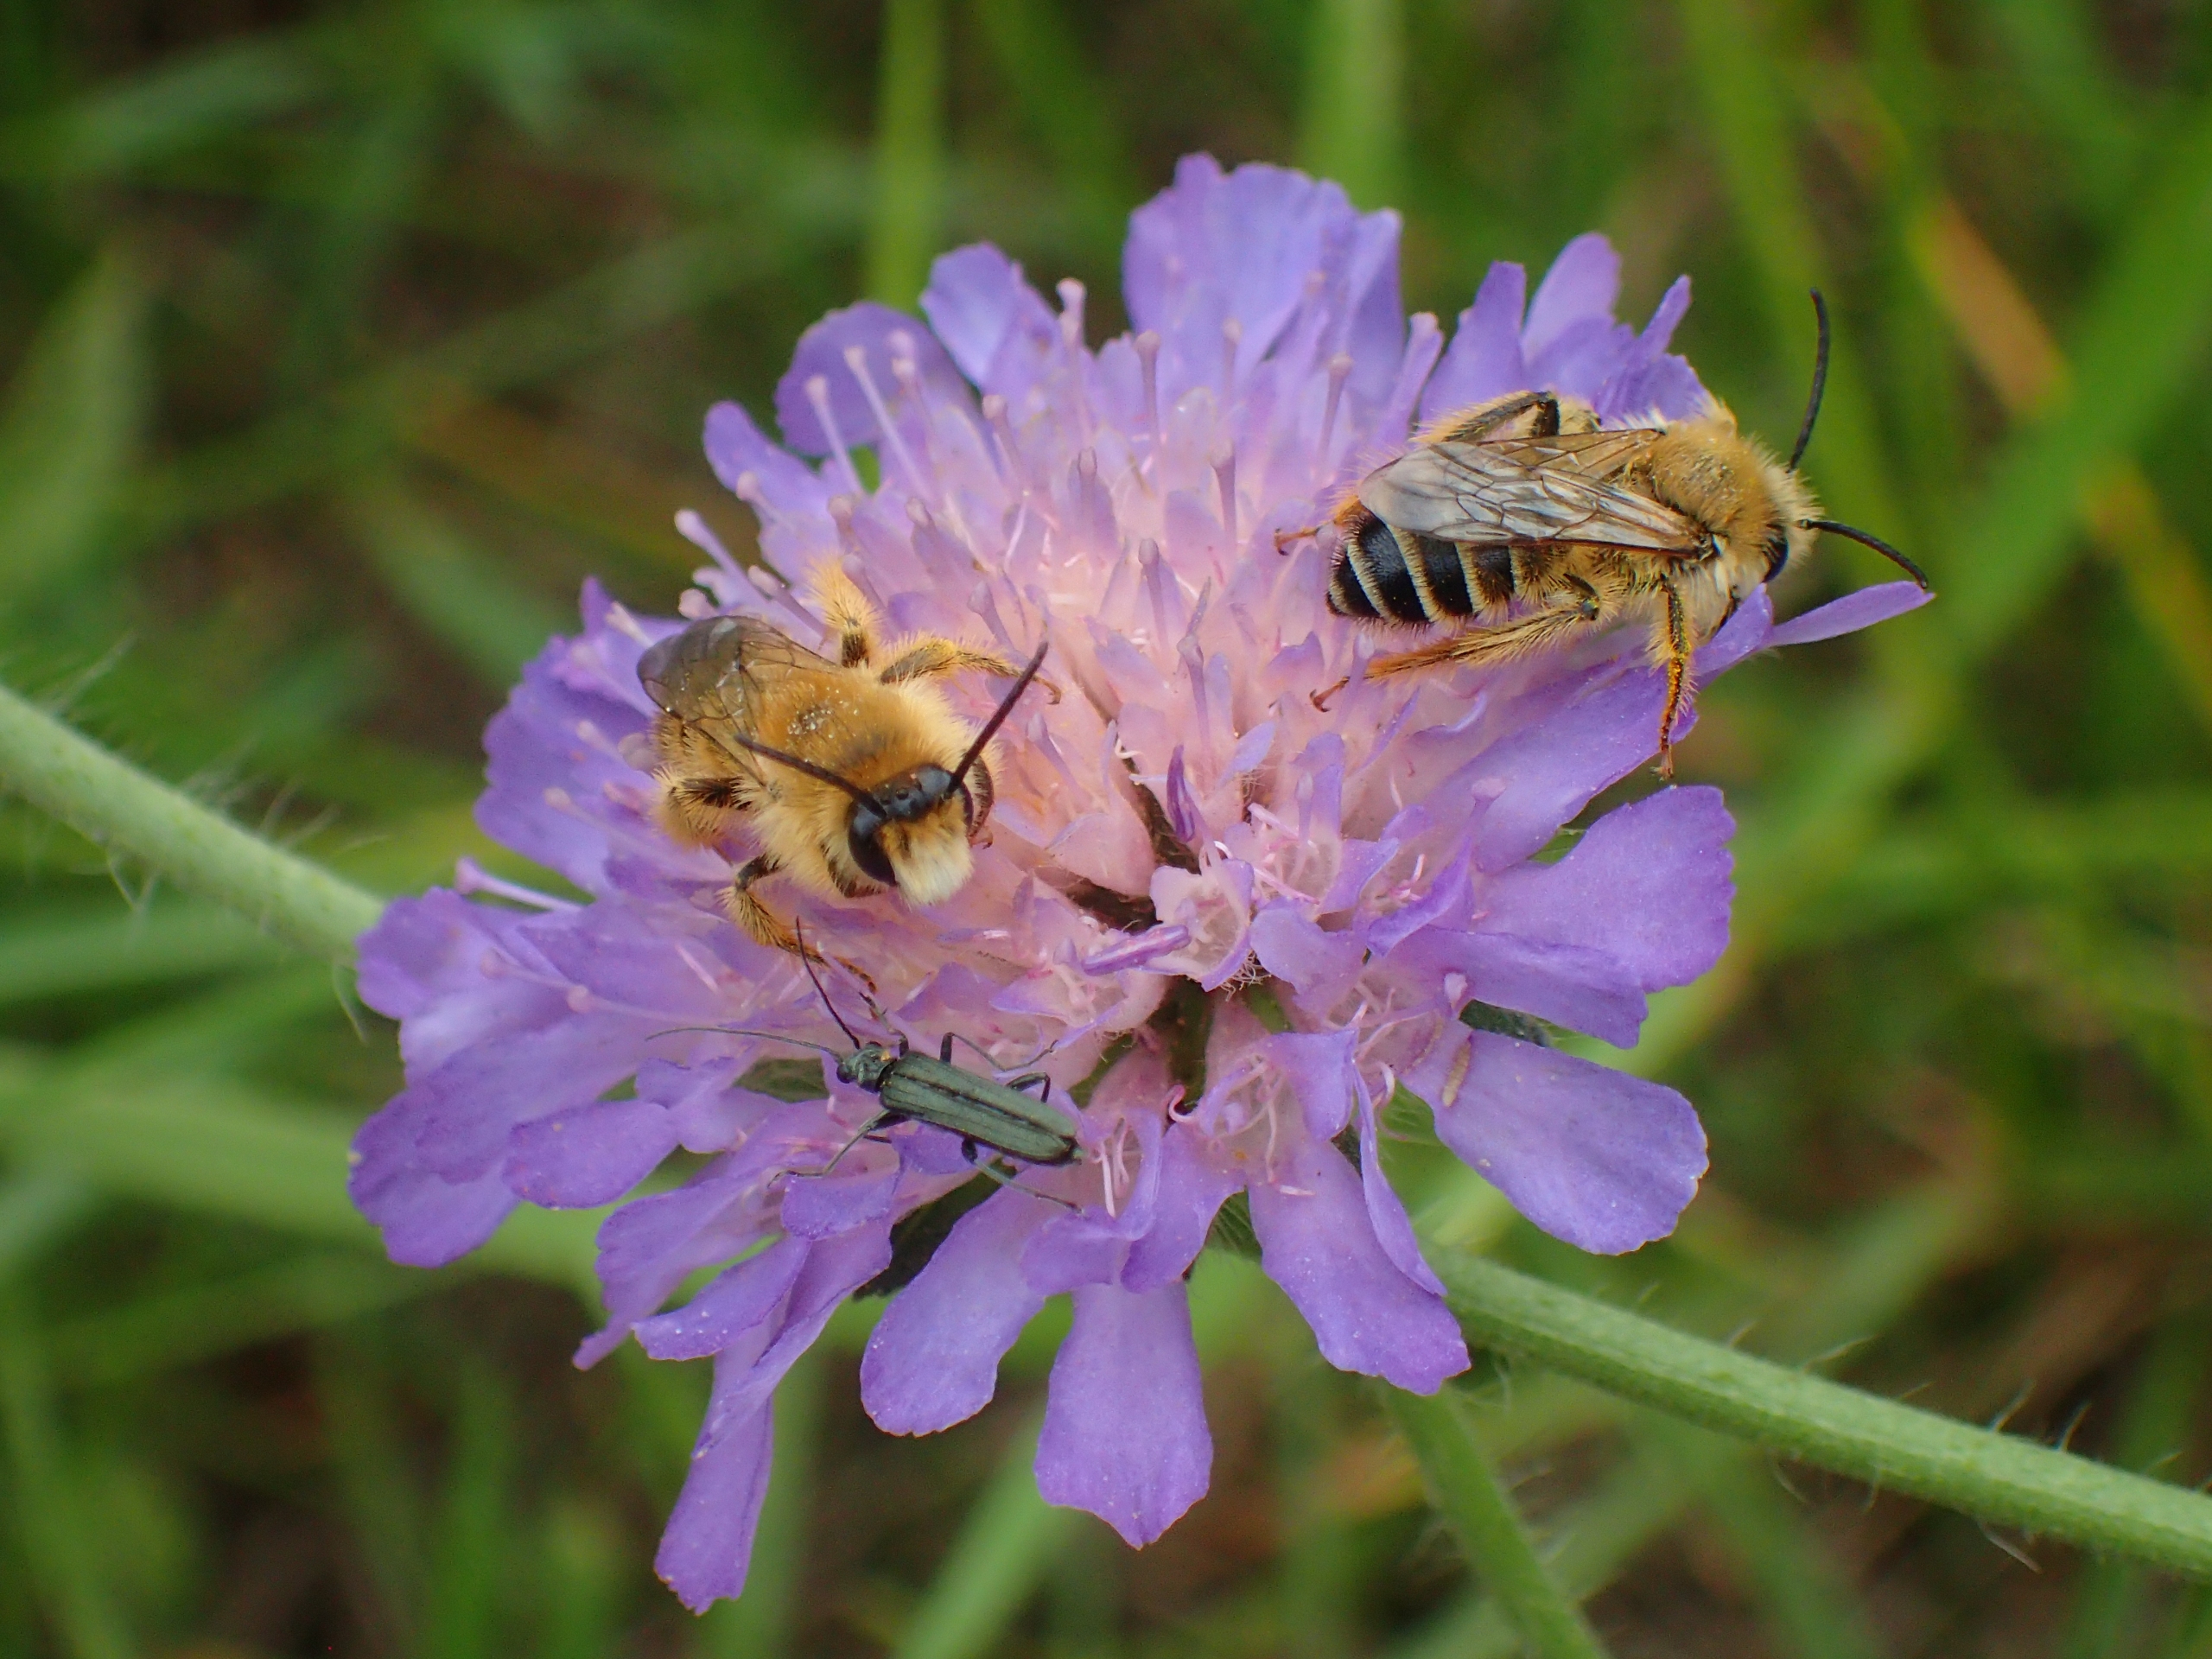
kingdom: Animalia
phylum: Arthropoda
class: Insecta
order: Hymenoptera
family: Melittidae
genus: Dasypoda
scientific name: Dasypoda hirtipes
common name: Pragtbuksebi
